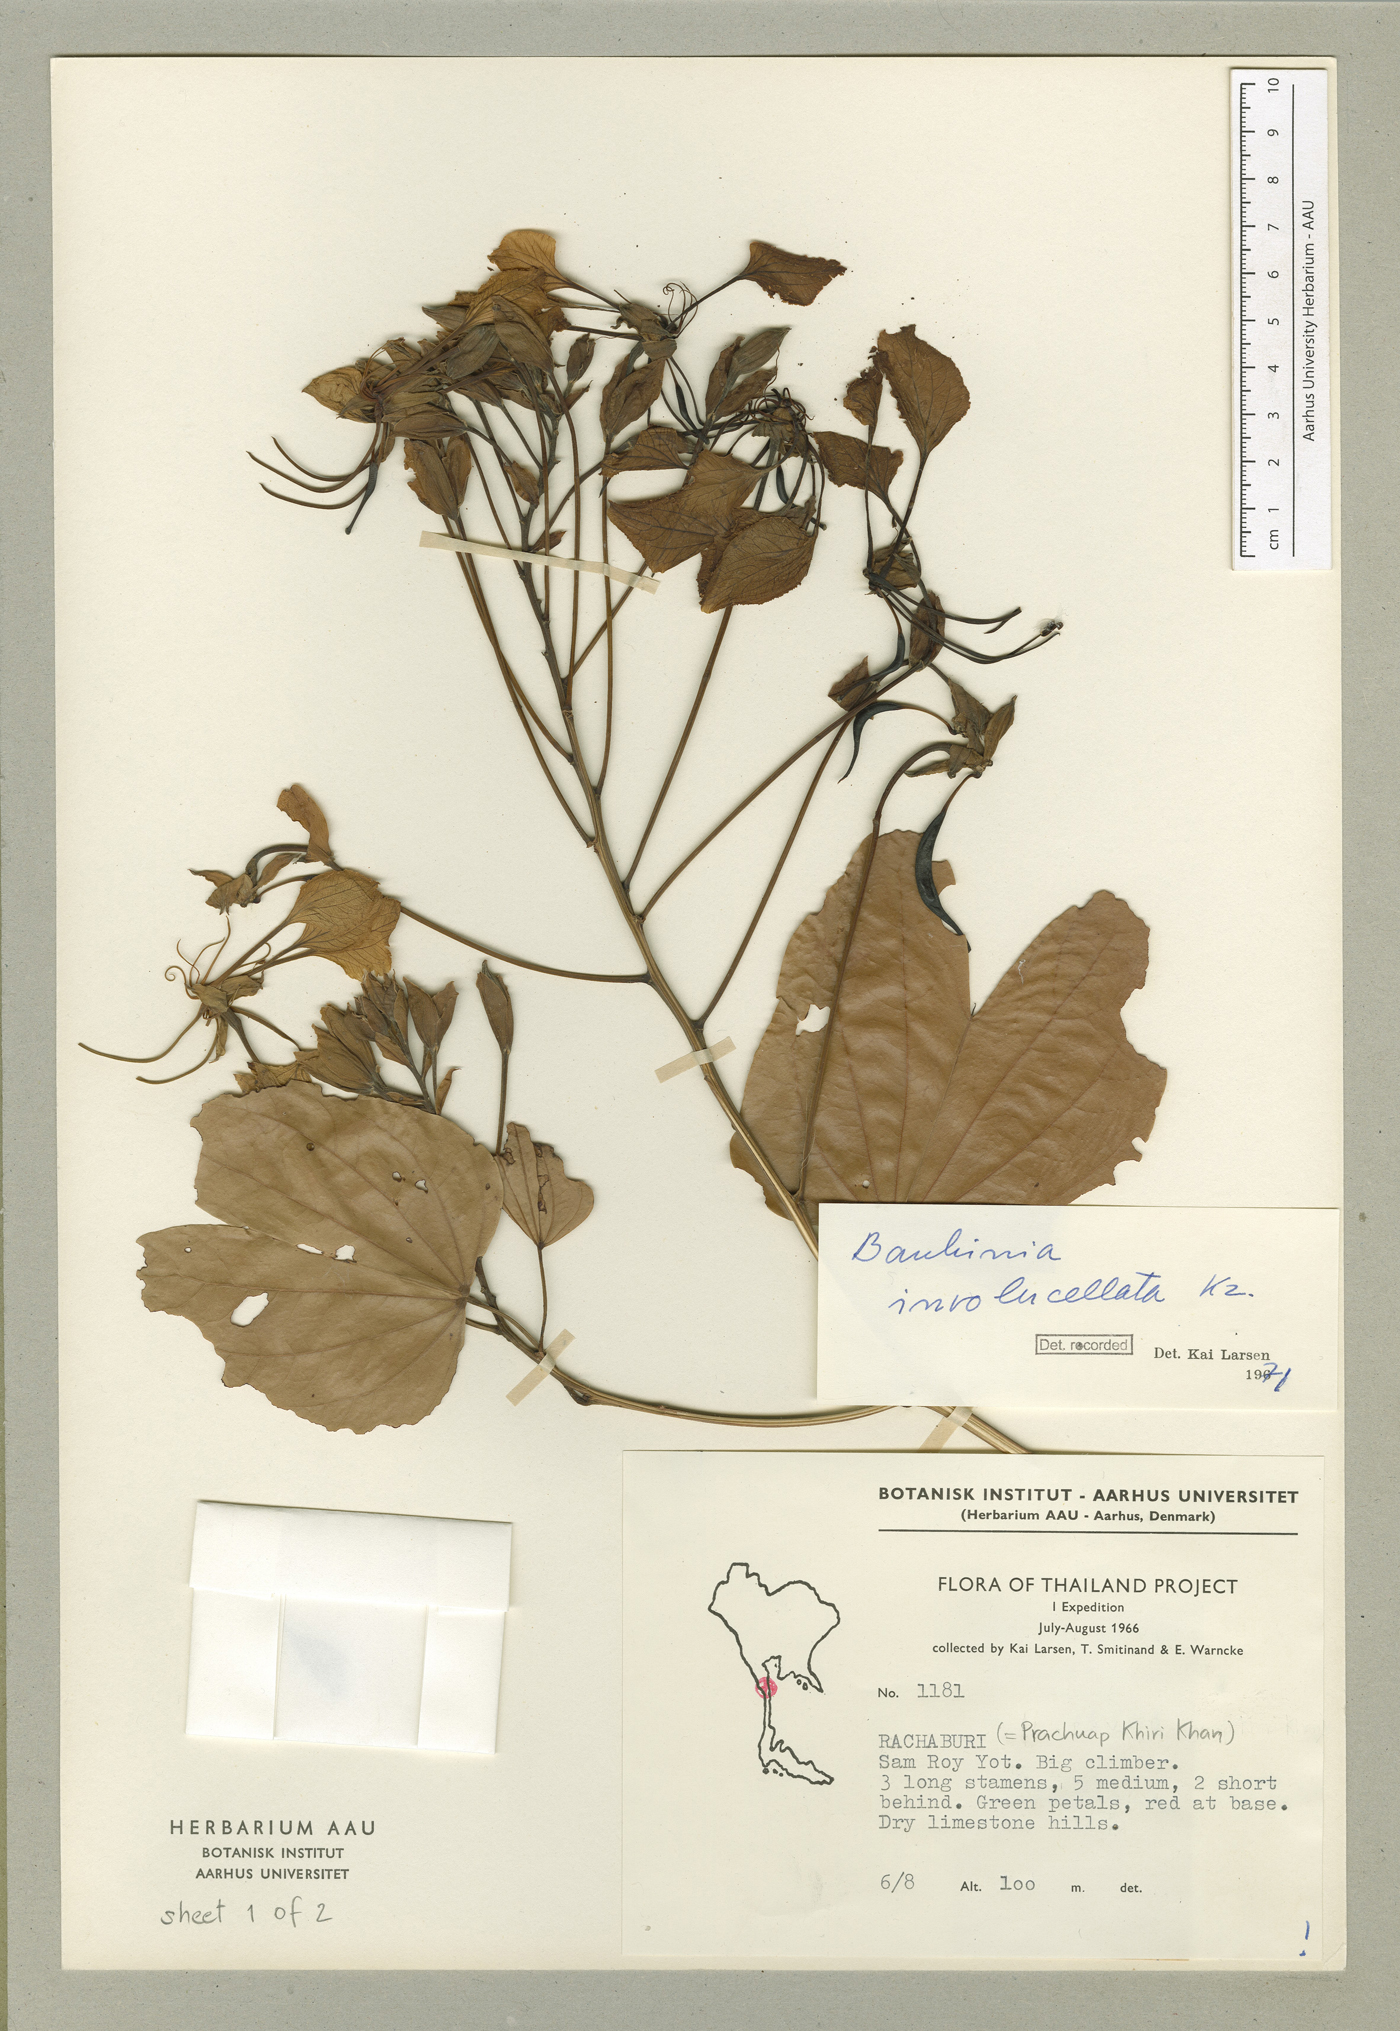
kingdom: Plantae
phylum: Tracheophyta
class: Magnoliopsida
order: Fabales
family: Fabaceae
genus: Bauhinia
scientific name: Bauhinia
